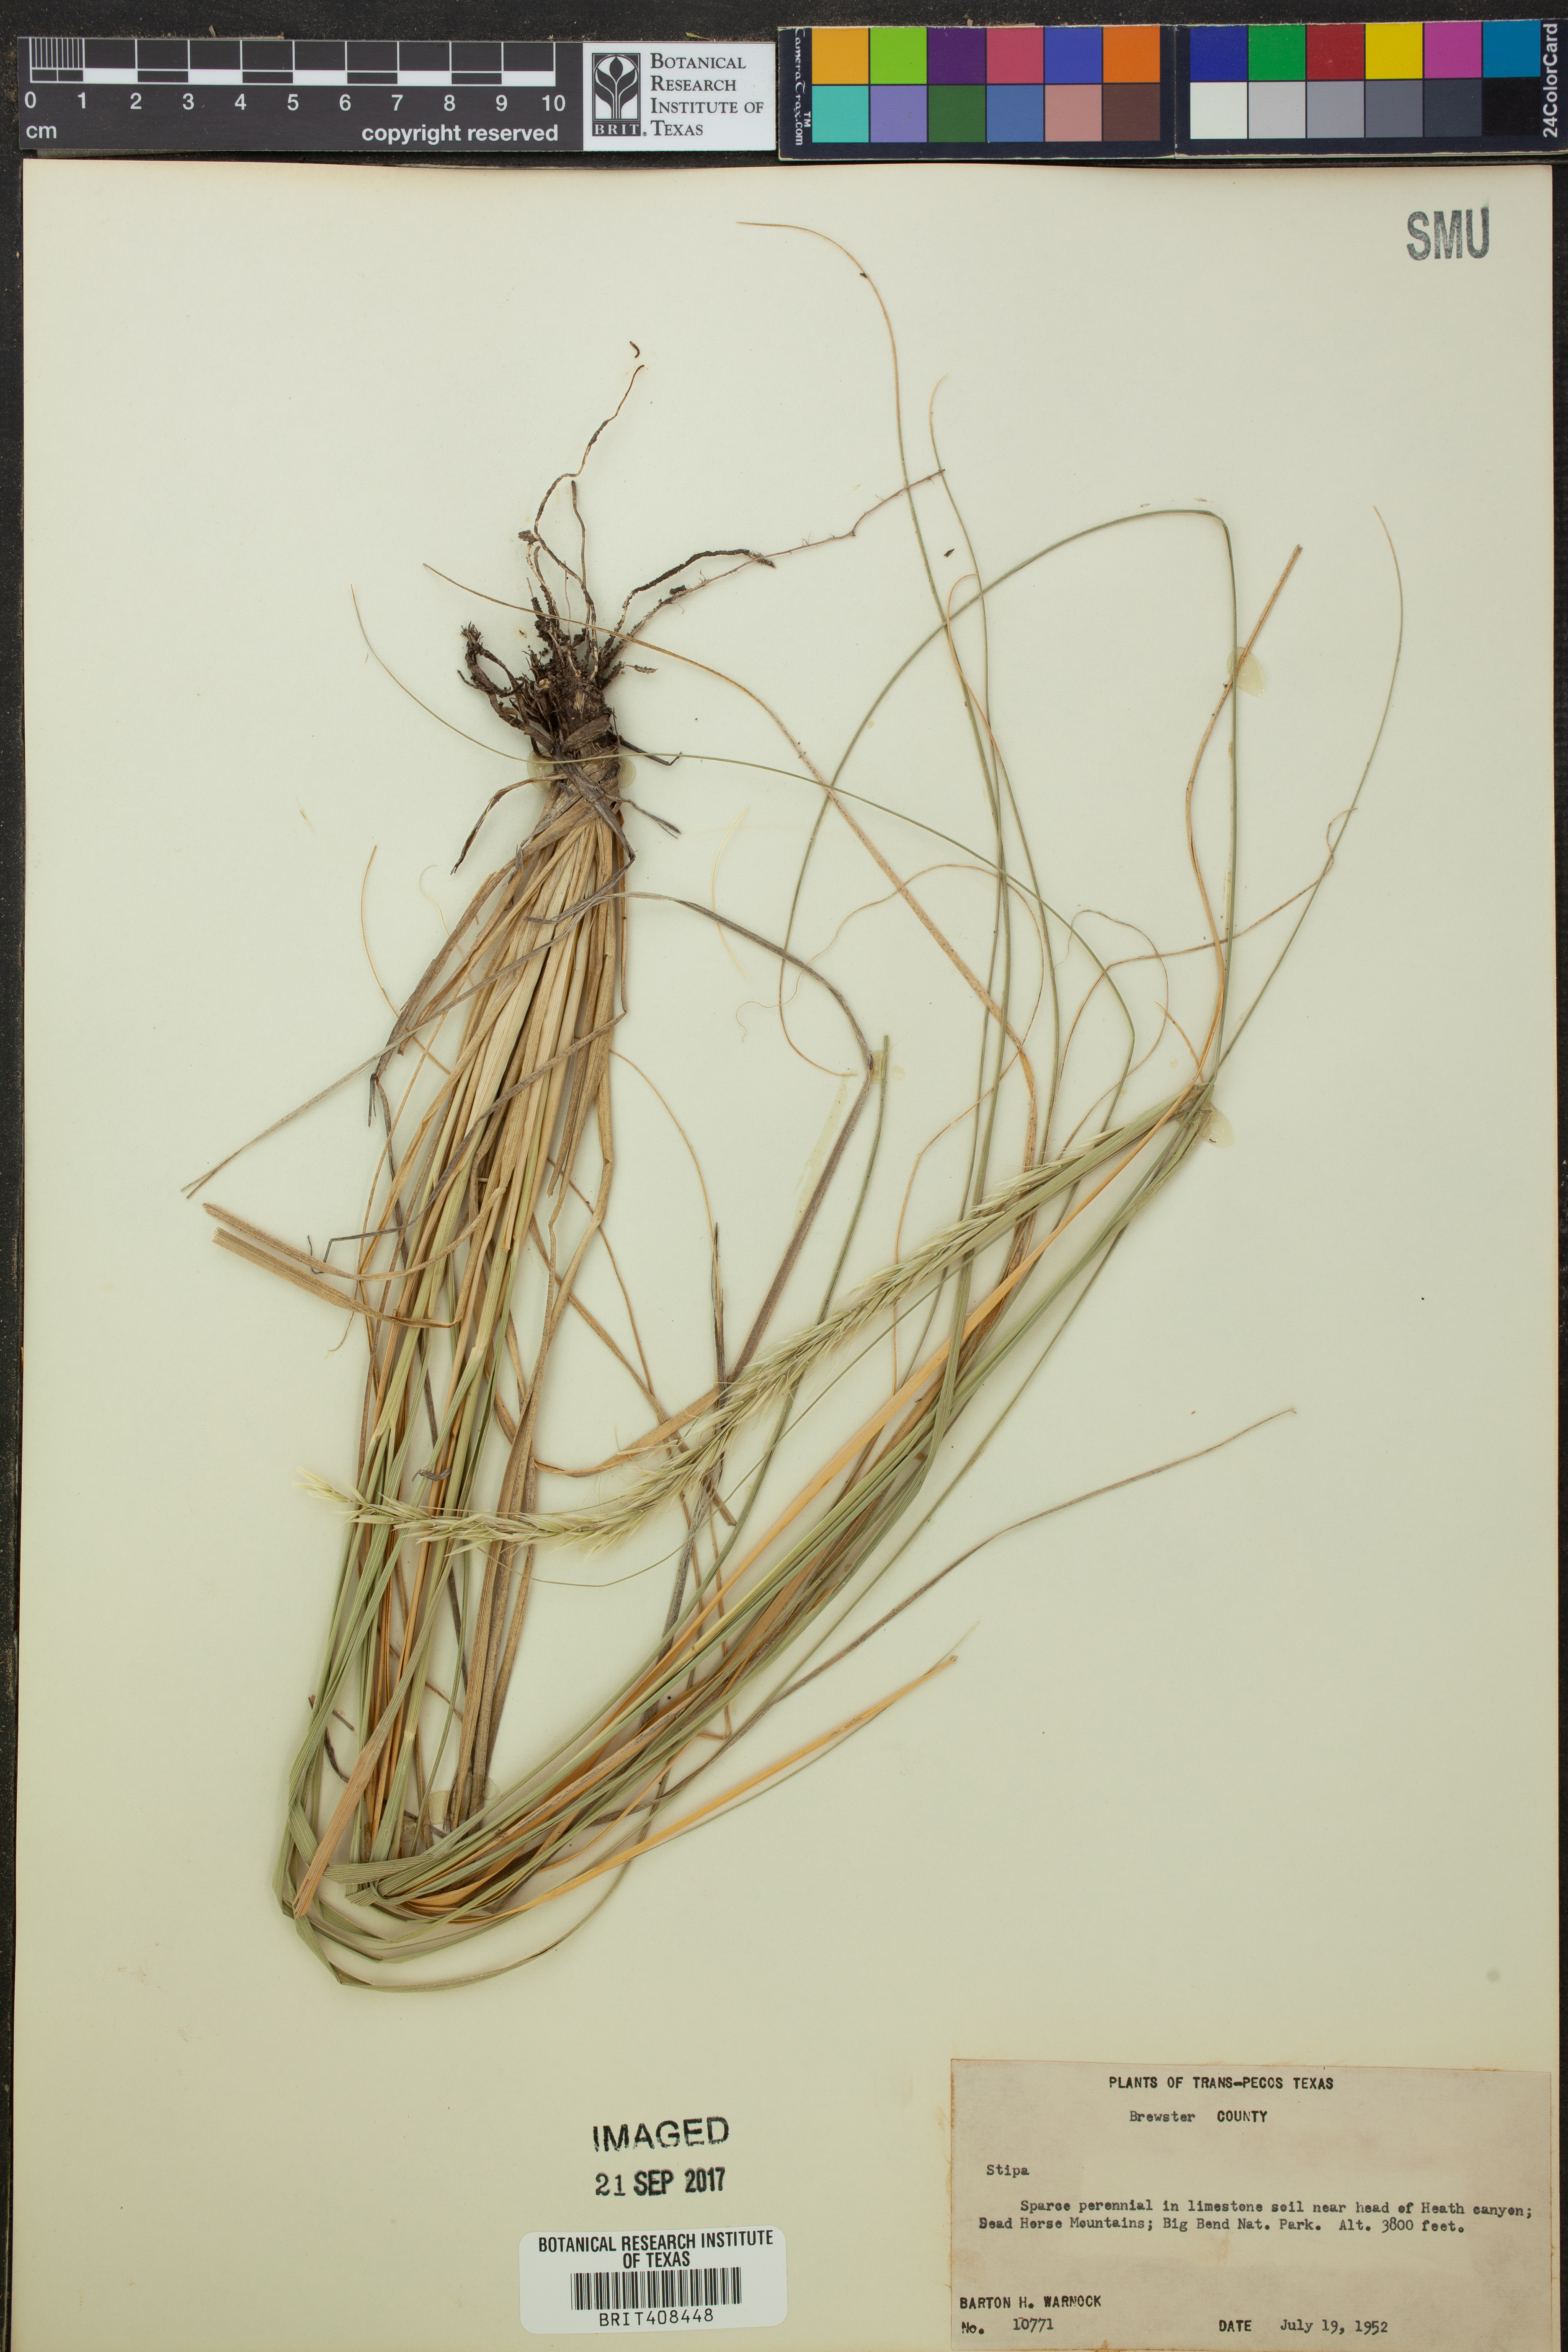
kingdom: Plantae
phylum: Tracheophyta
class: Liliopsida
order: Poales
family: Poaceae
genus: Stipa
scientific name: Stipa
